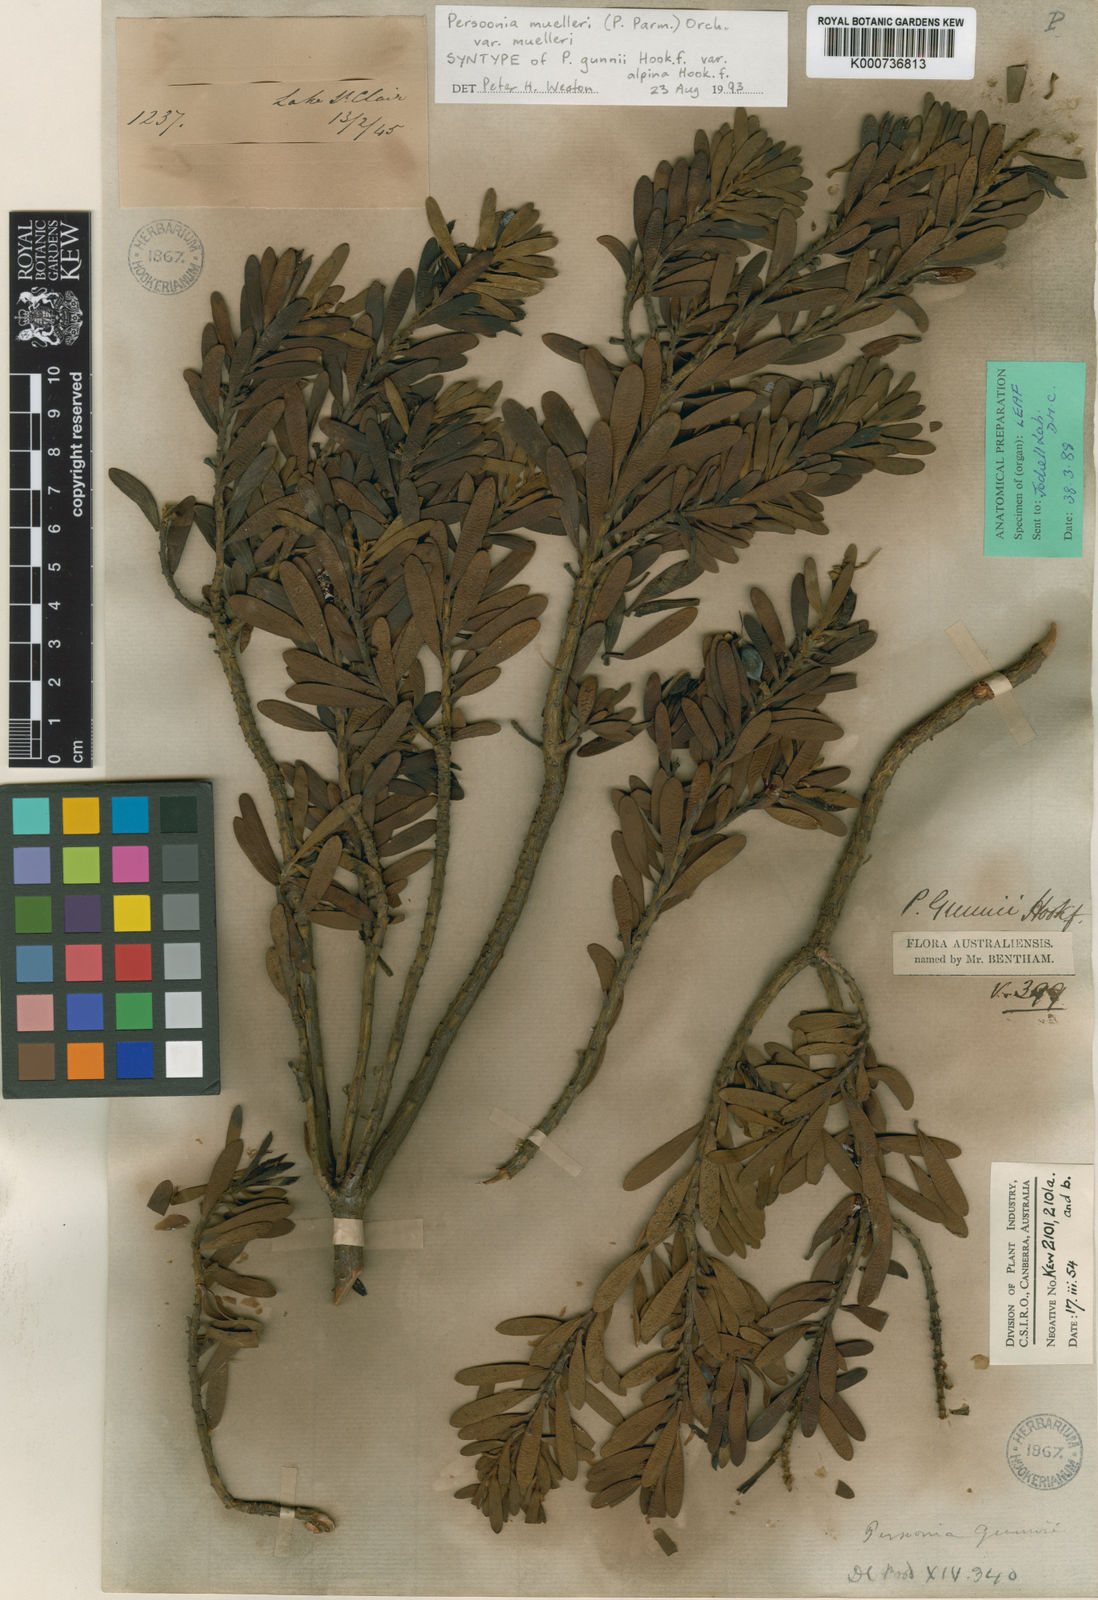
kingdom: Plantae
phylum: Tracheophyta
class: Magnoliopsida
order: Proteales
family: Proteaceae
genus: Persoonia
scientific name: Persoonia gunnii
